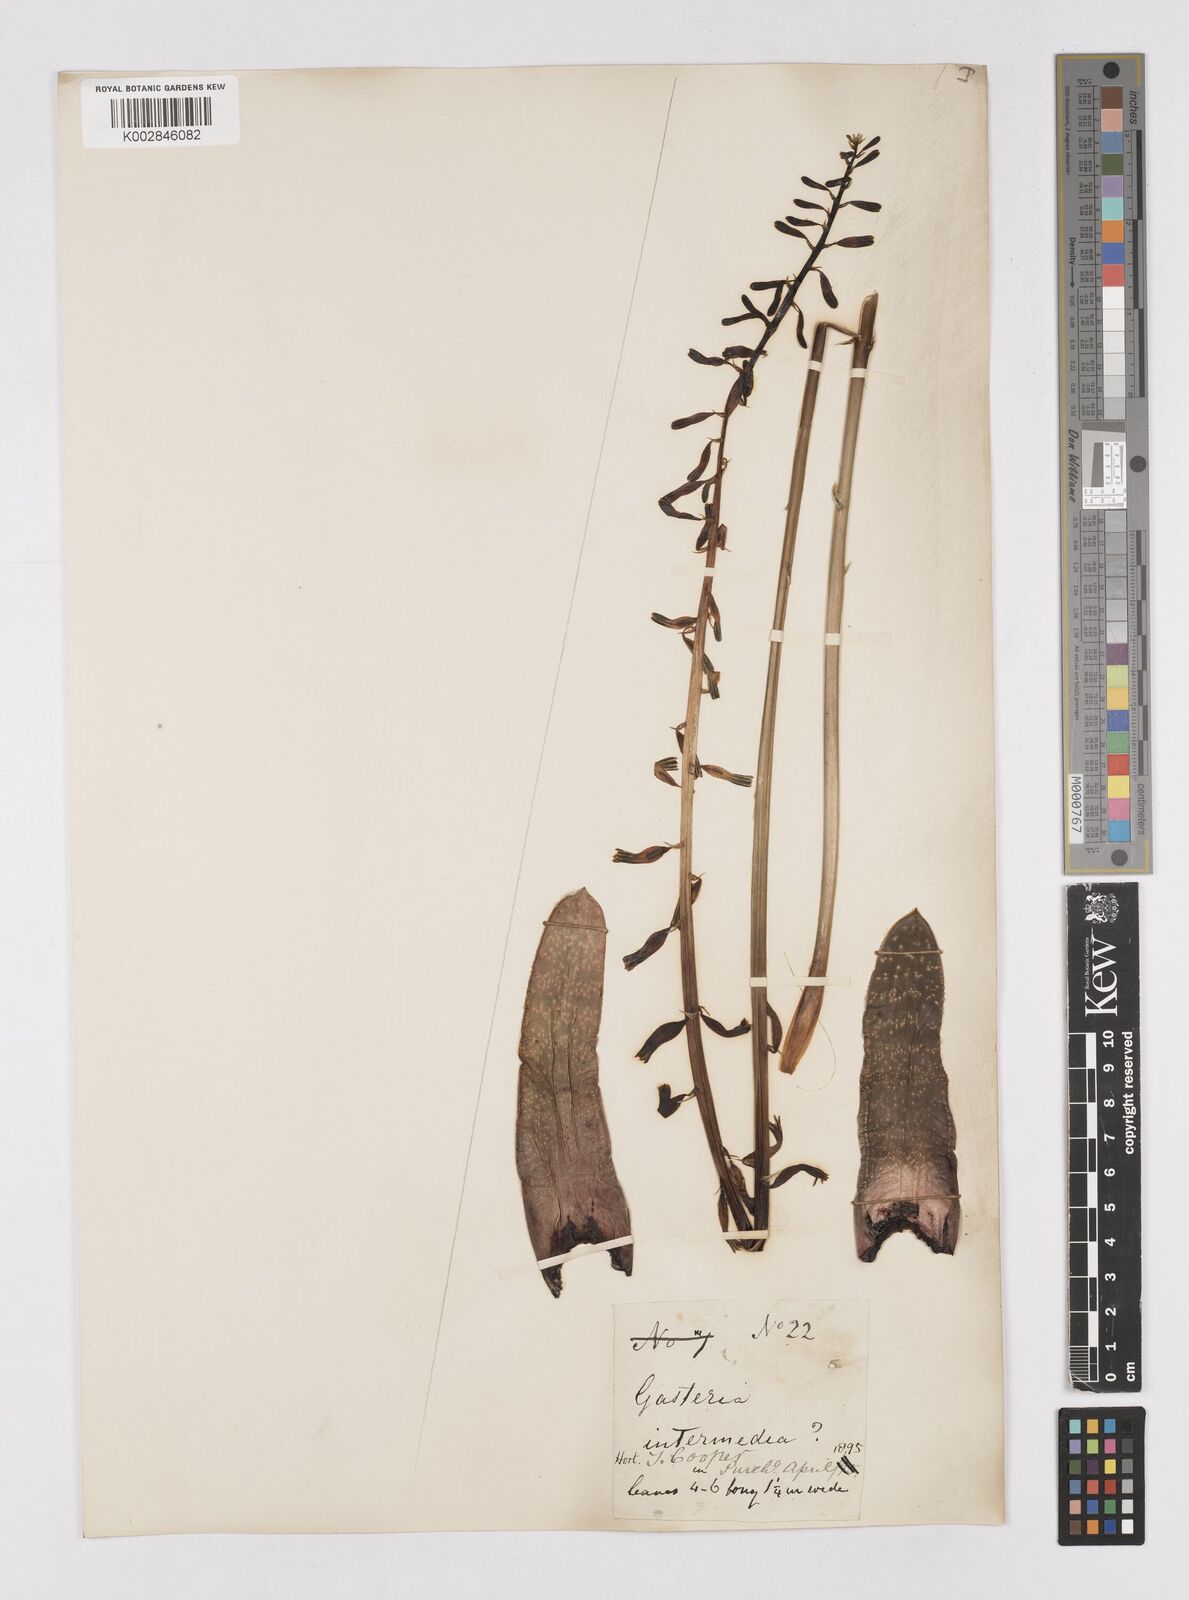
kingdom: Plantae
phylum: Tracheophyta
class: Liliopsida
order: Asparagales
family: Asphodelaceae
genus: Gasteria
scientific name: Gasteria carinata
